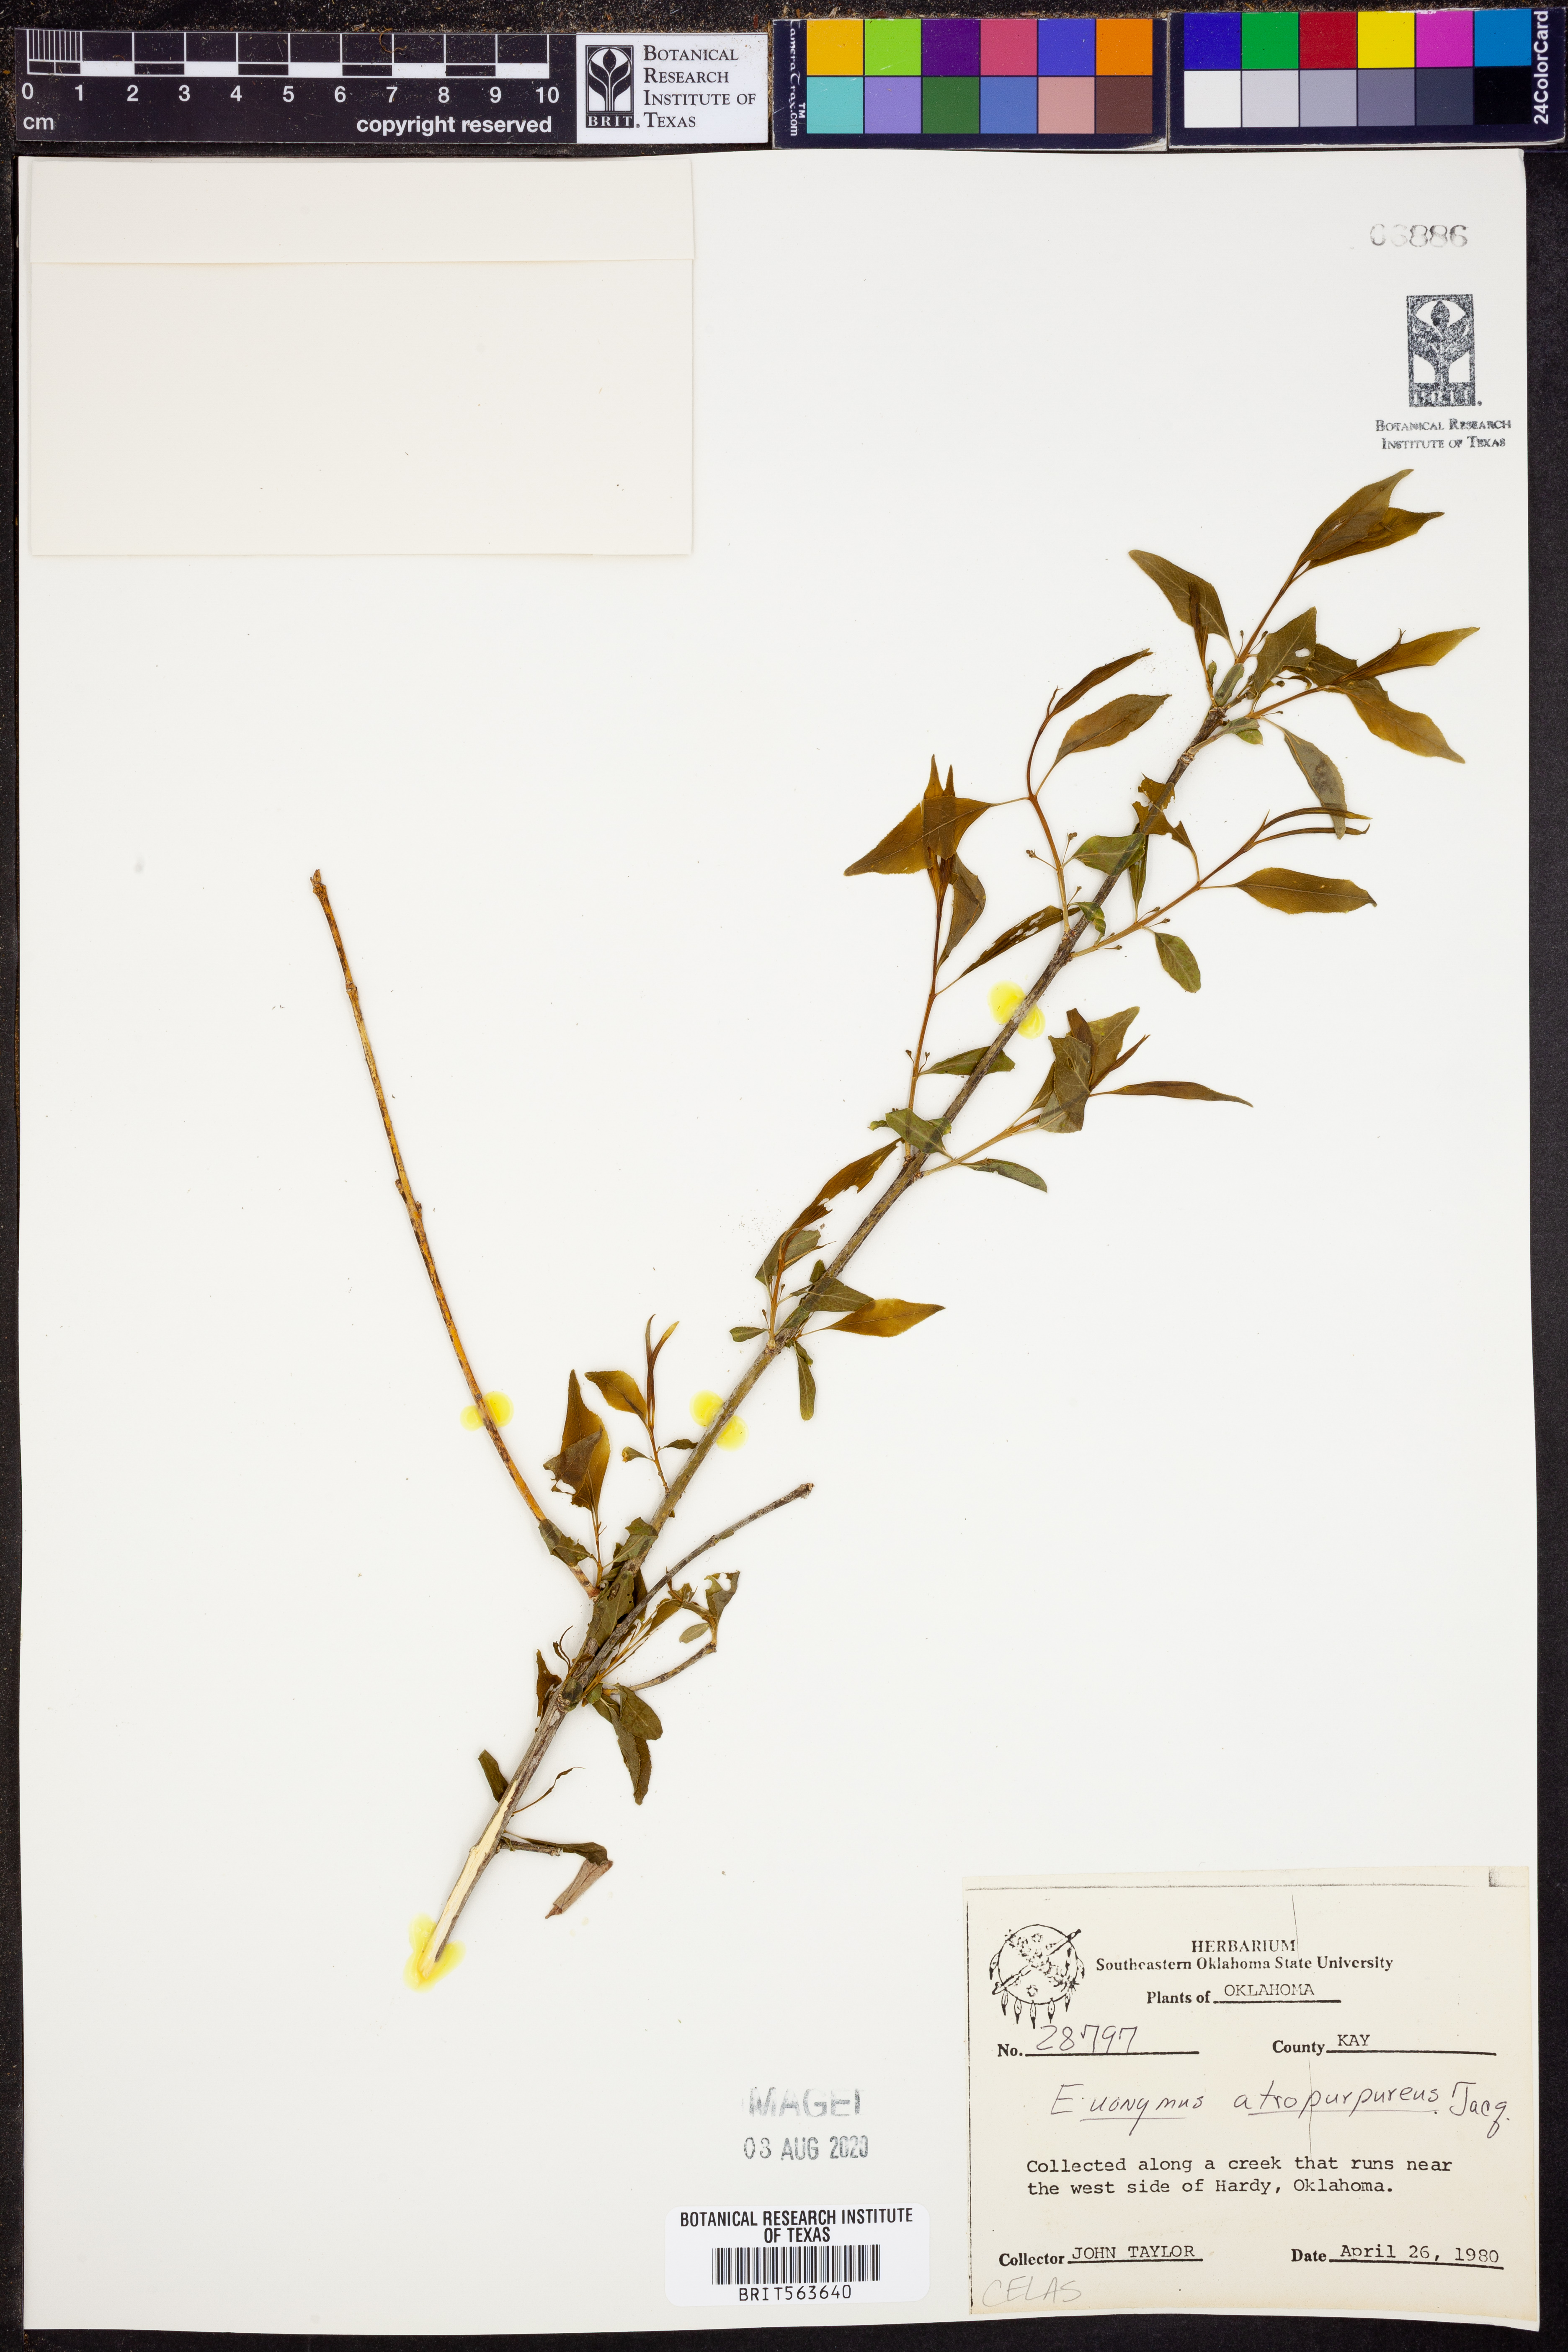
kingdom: Plantae
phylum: Tracheophyta
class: Magnoliopsida
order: Celastrales
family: Celastraceae
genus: Euonymus
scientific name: Euonymus atropurpureus
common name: Eastern wahoo
